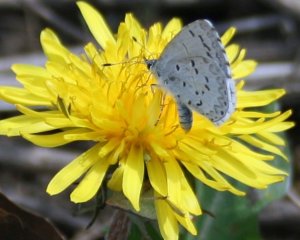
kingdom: Animalia
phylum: Arthropoda
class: Insecta
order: Lepidoptera
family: Lycaenidae
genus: Celastrina
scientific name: Celastrina lucia
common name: Northern Spring Azure
